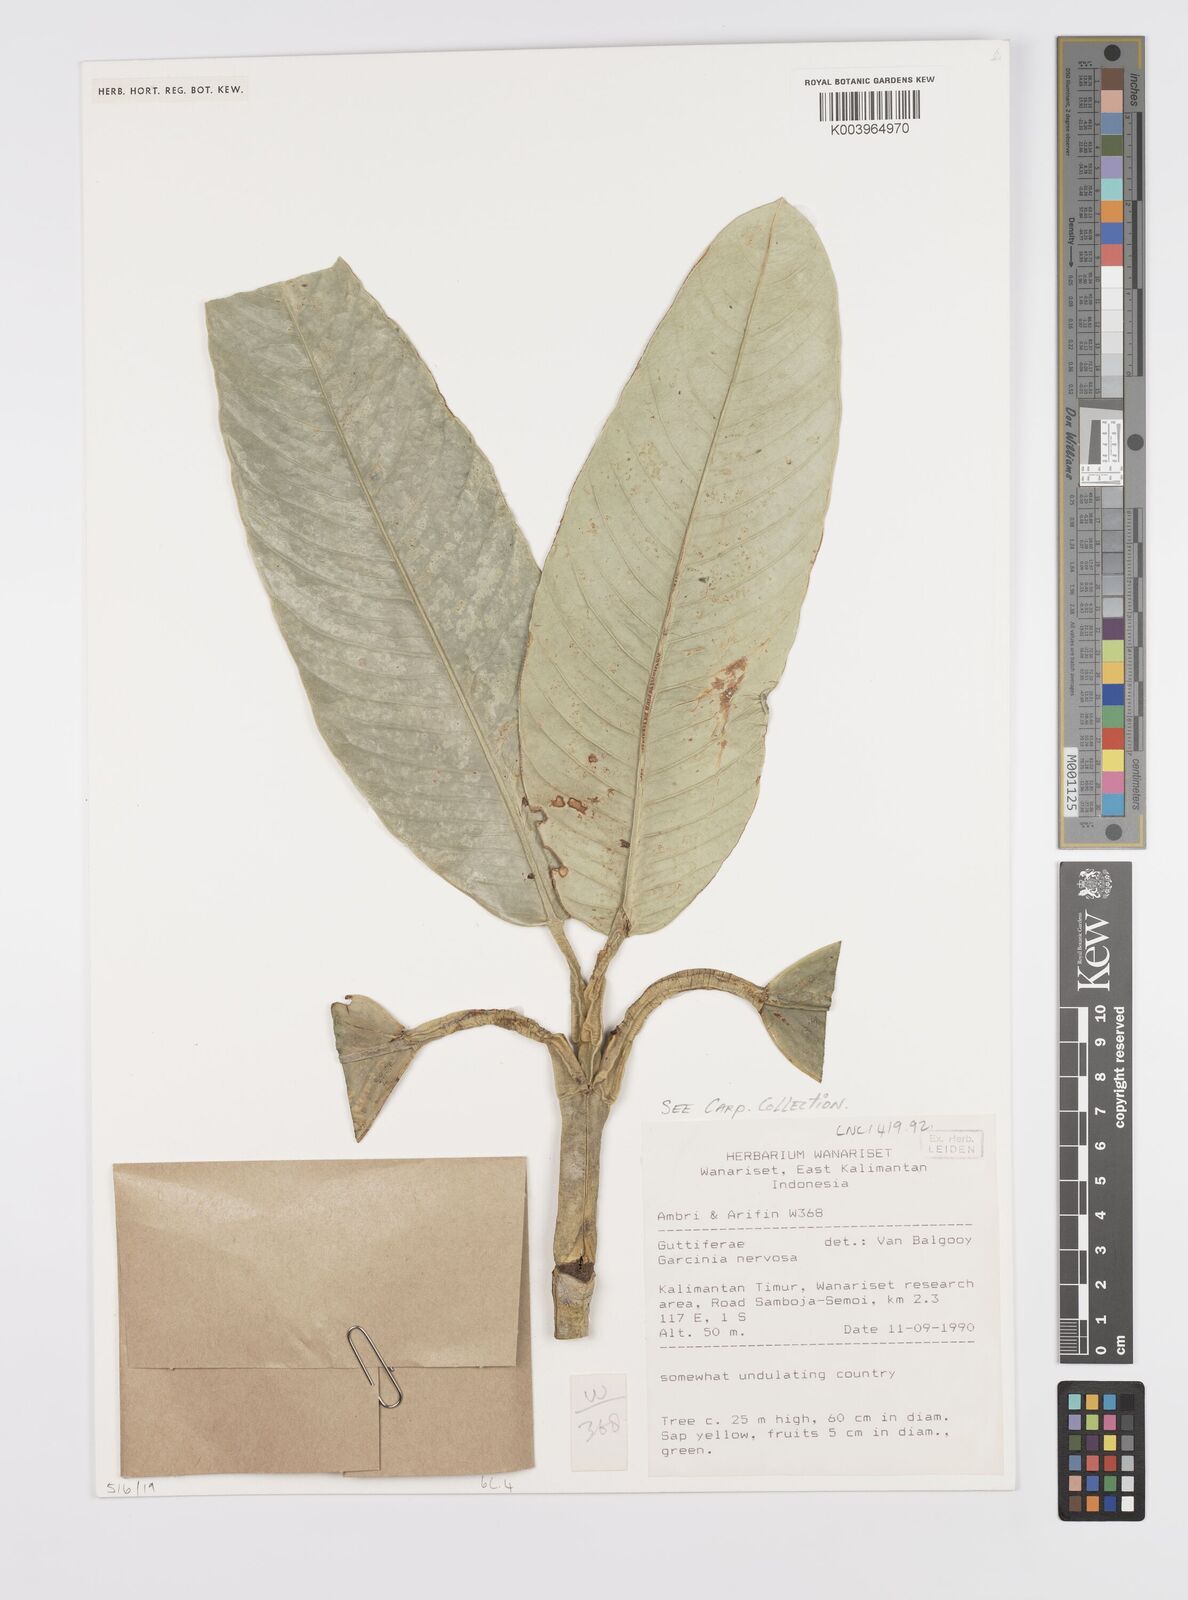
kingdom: Plantae
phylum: Tracheophyta
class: Magnoliopsida
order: Malpighiales
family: Clusiaceae
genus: Garcinia
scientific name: Garcinia nervosa
